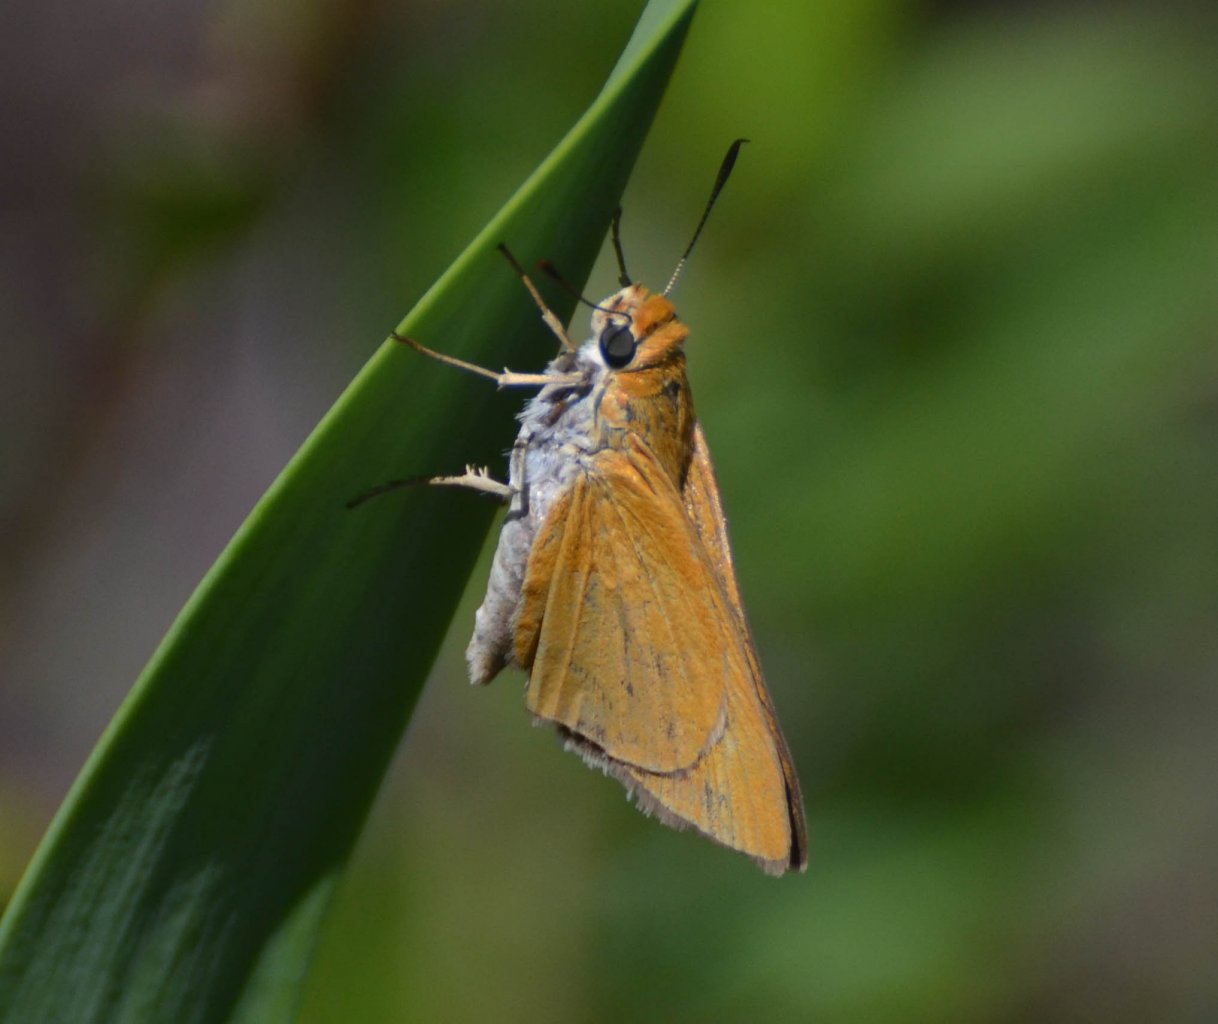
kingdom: Animalia
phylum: Arthropoda
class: Insecta
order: Lepidoptera
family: Hesperiidae
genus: Euphyes
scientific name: Euphyes arpa
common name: Palmetto Skipper
